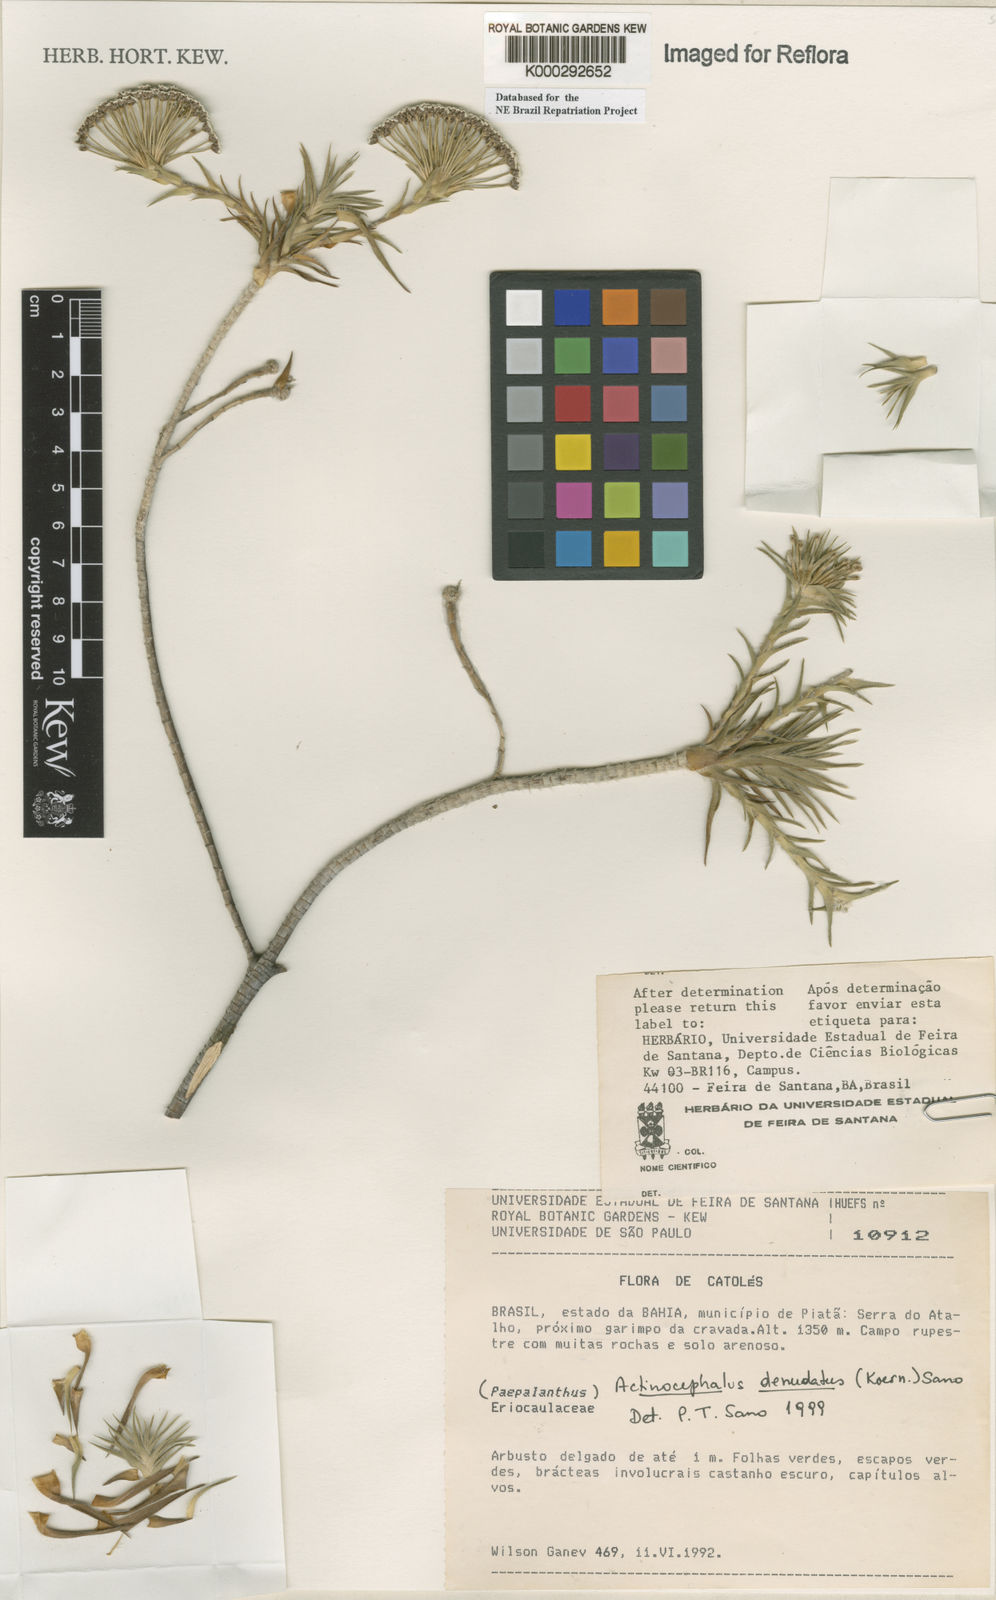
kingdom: Plantae
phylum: Tracheophyta
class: Liliopsida
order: Poales
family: Eriocaulaceae
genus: Paepalanthus
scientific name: Paepalanthus denudatus
